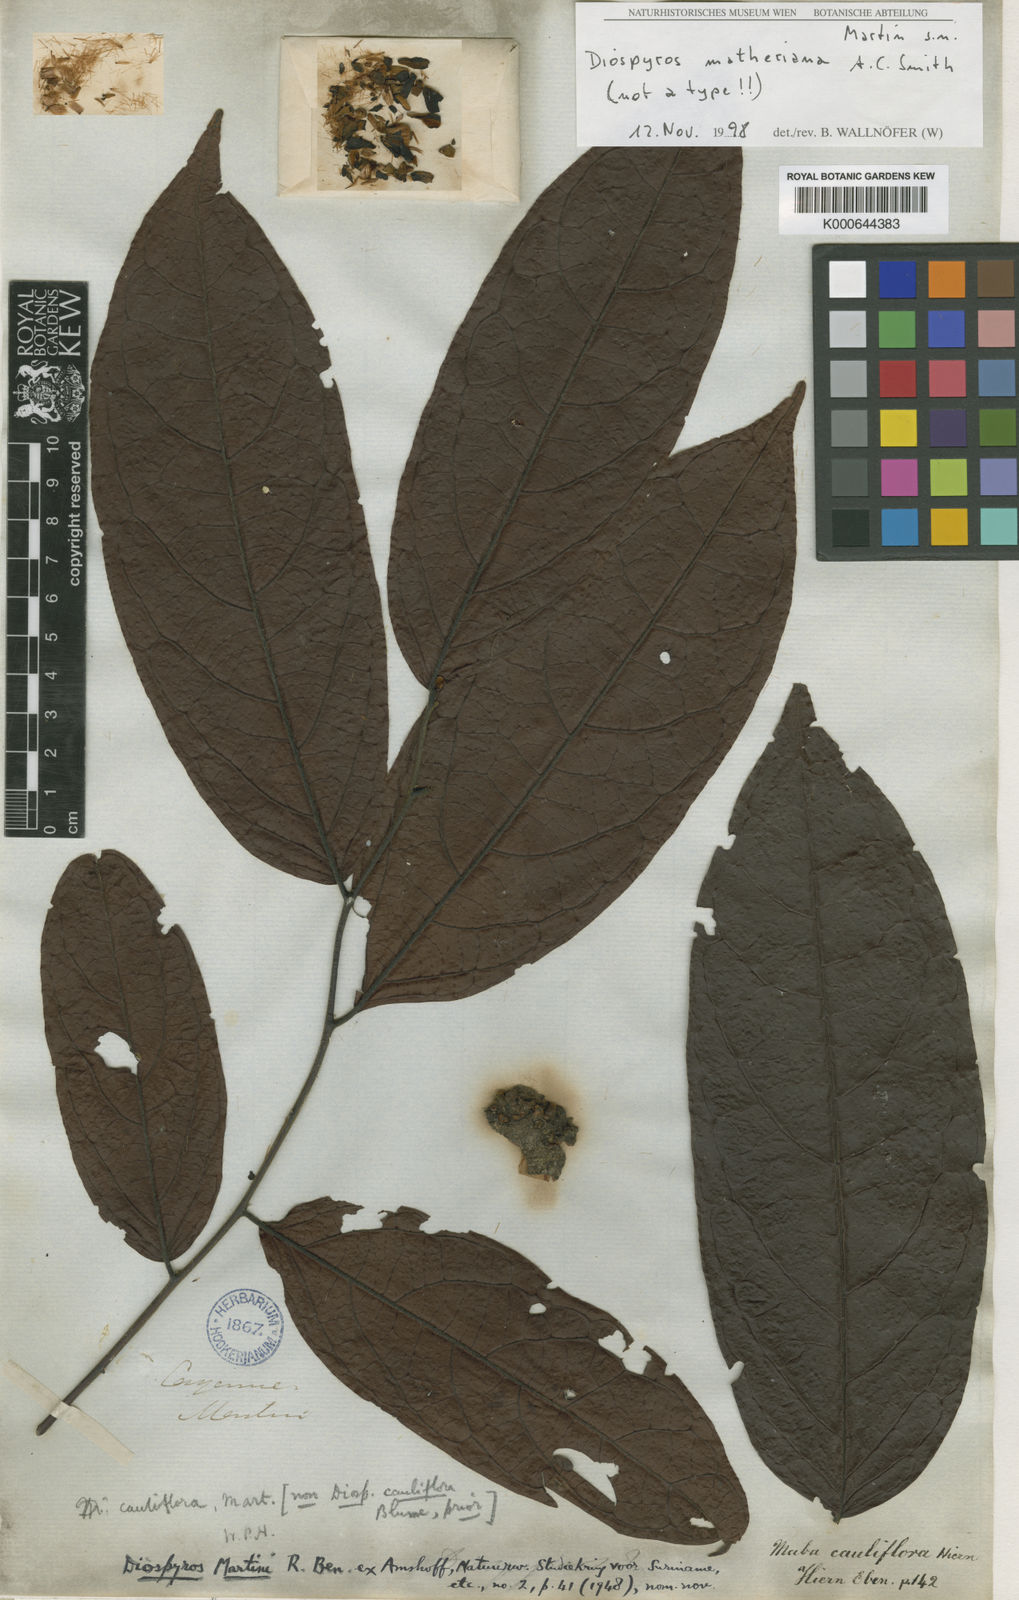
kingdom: Plantae
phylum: Tracheophyta
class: Magnoliopsida
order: Ericales
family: Ebenaceae
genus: Diospyros
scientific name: Diospyros cauliflora
